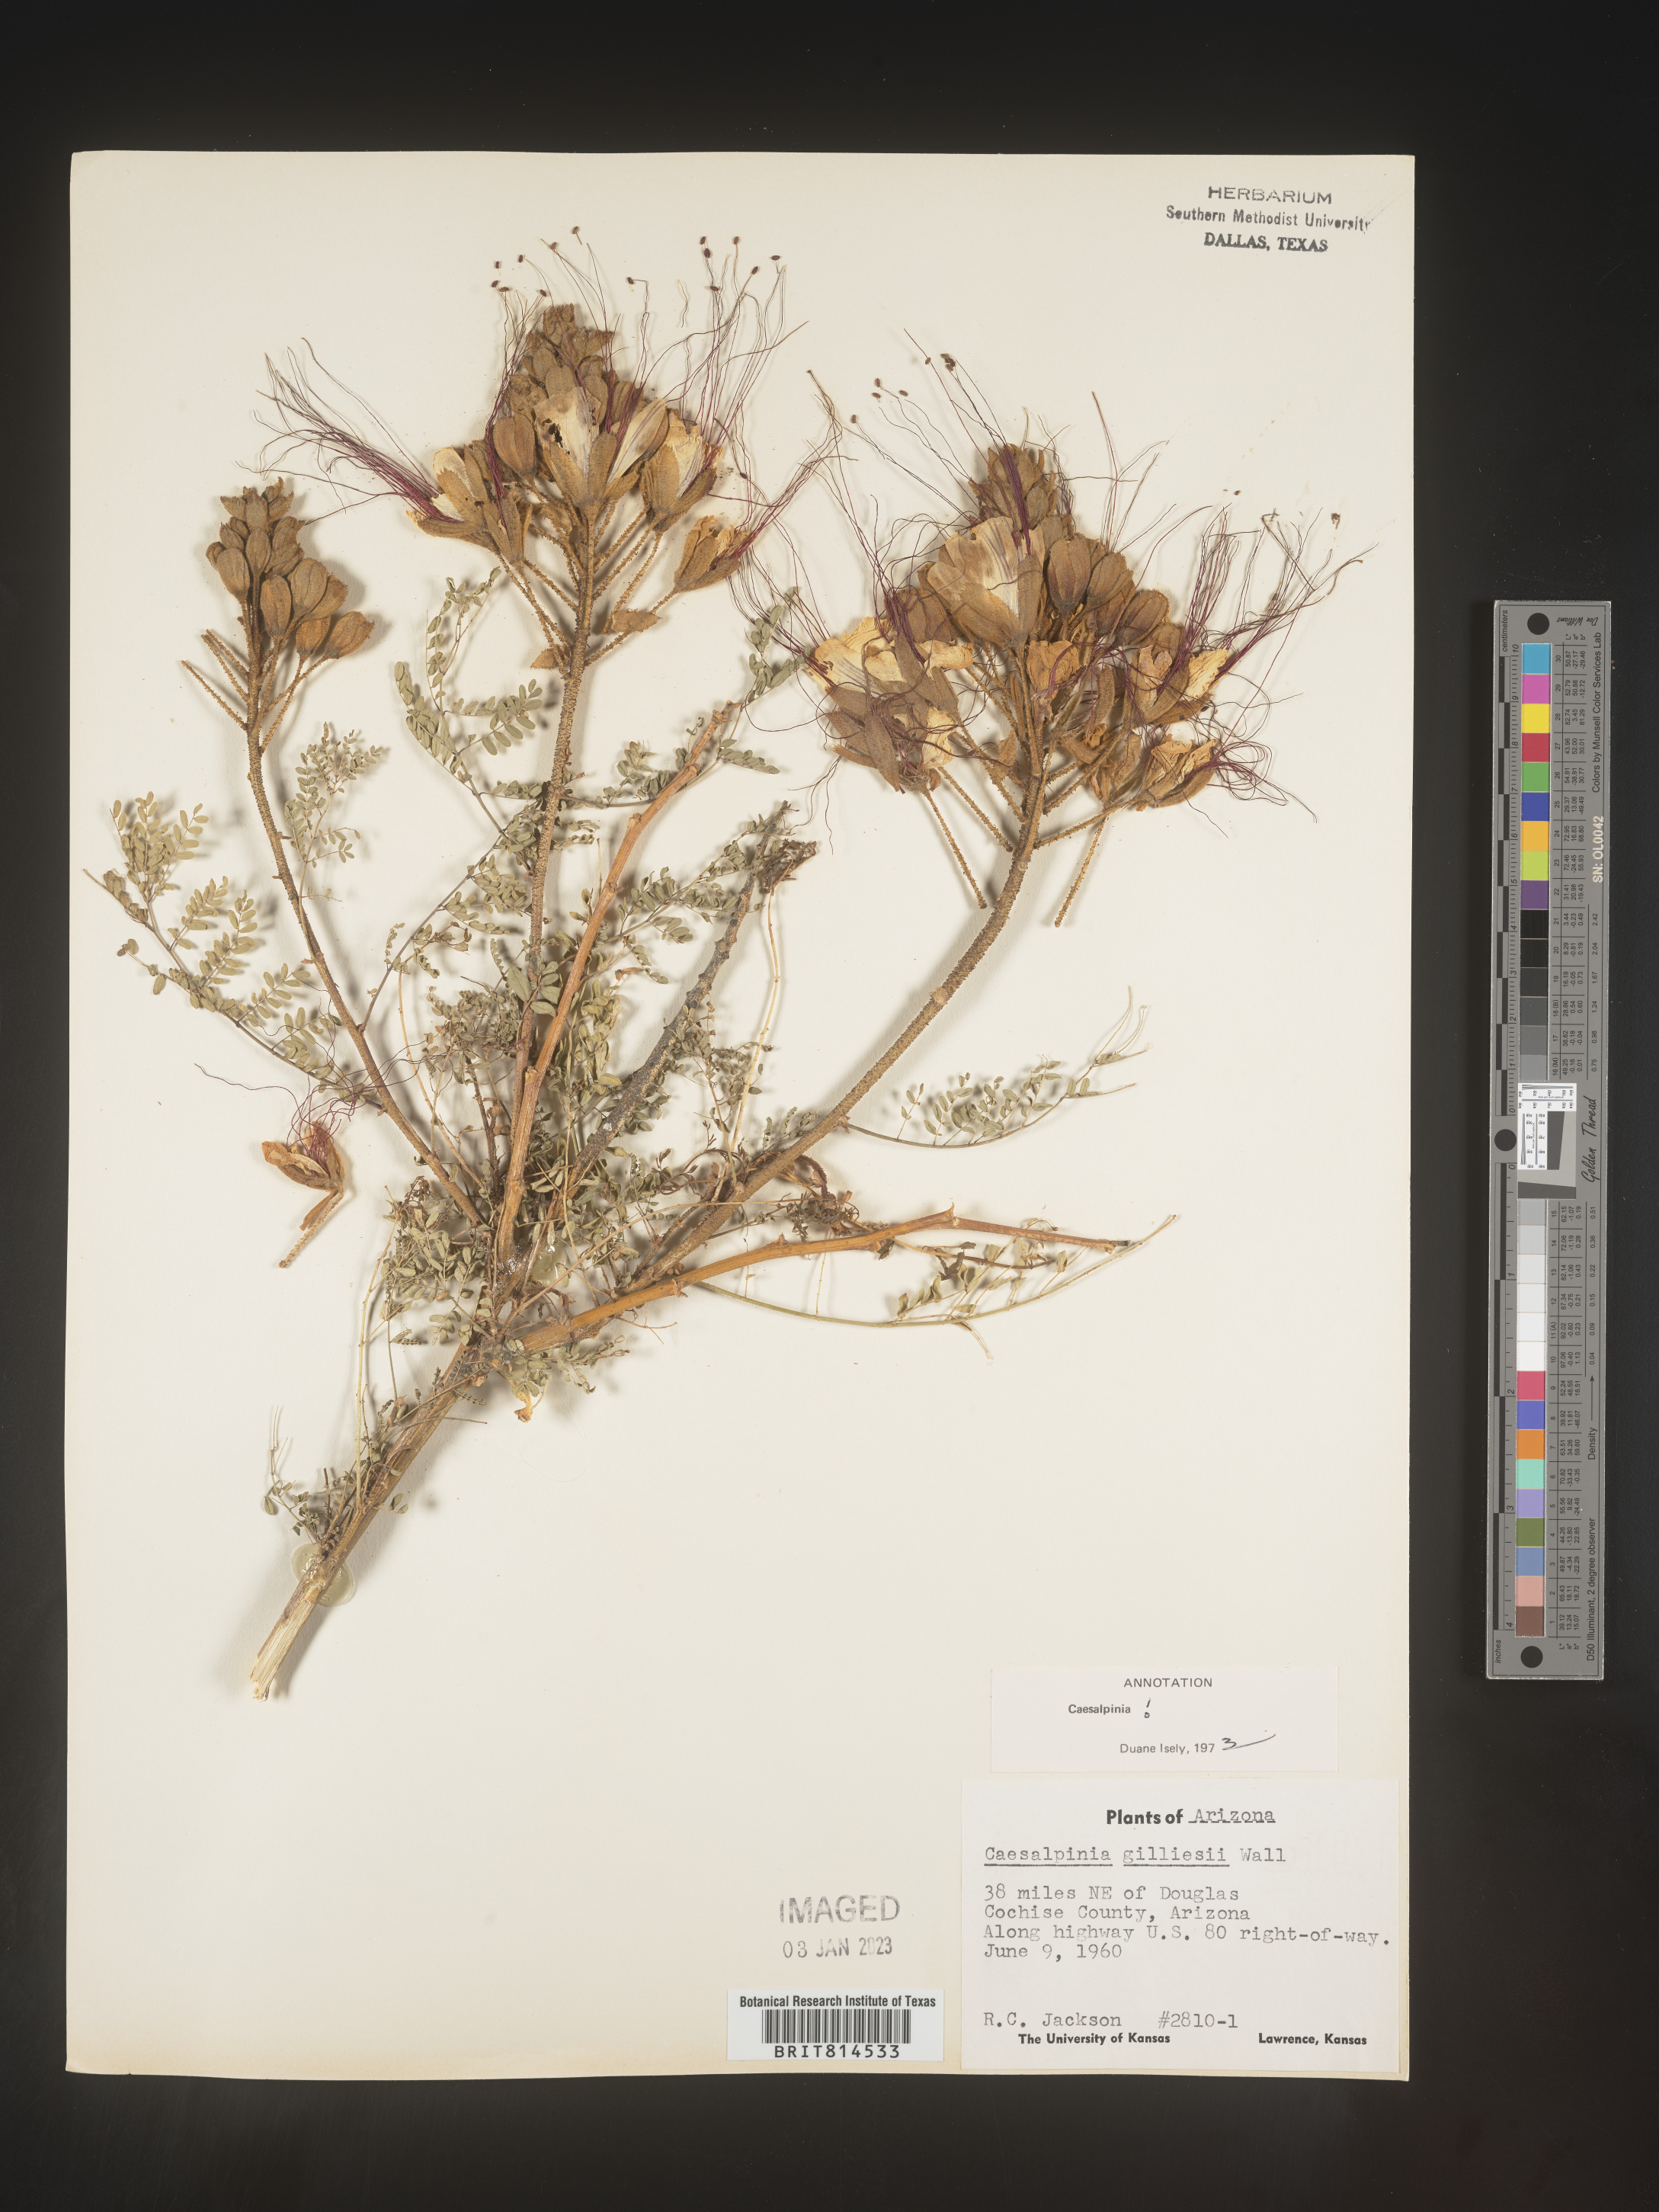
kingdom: Plantae
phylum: Tracheophyta
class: Magnoliopsida
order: Fabales
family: Fabaceae
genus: Caesalpinia
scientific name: Caesalpinia
